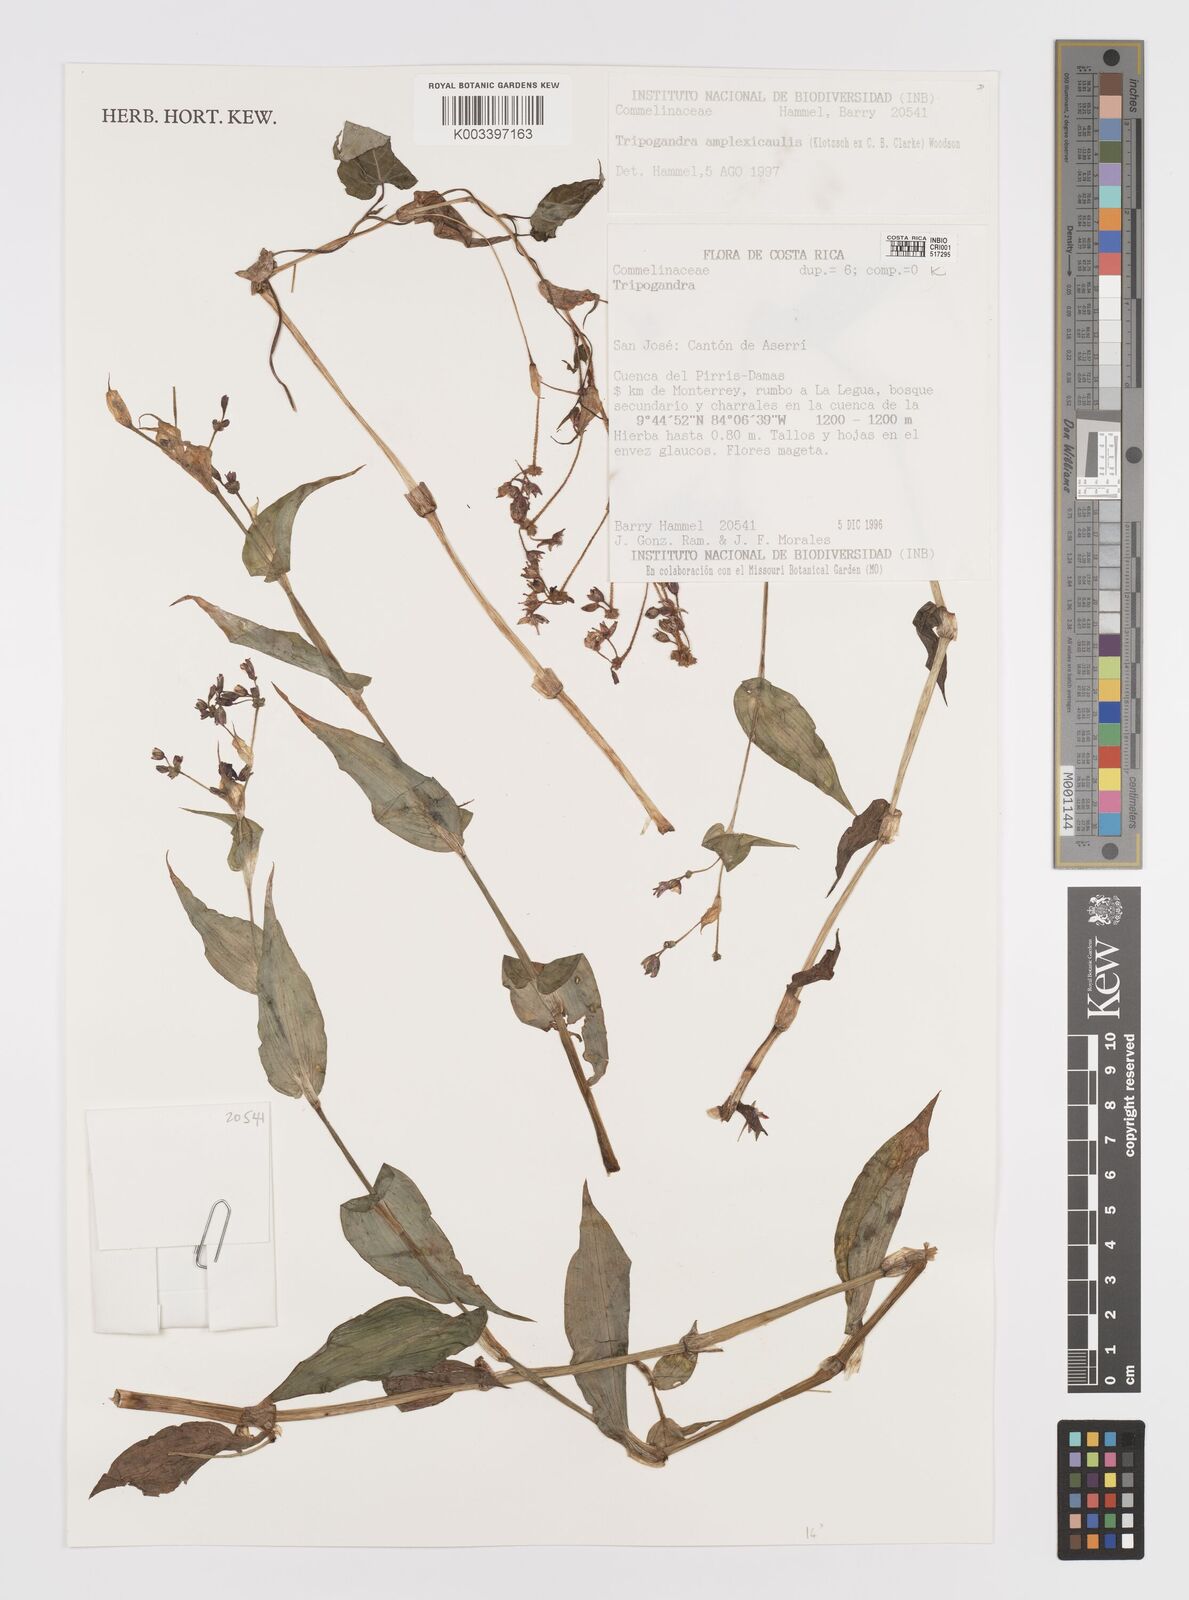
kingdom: Plantae
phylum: Tracheophyta
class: Liliopsida
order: Commelinales
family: Commelinaceae
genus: Callisia
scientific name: Callisia amplexicaulis
